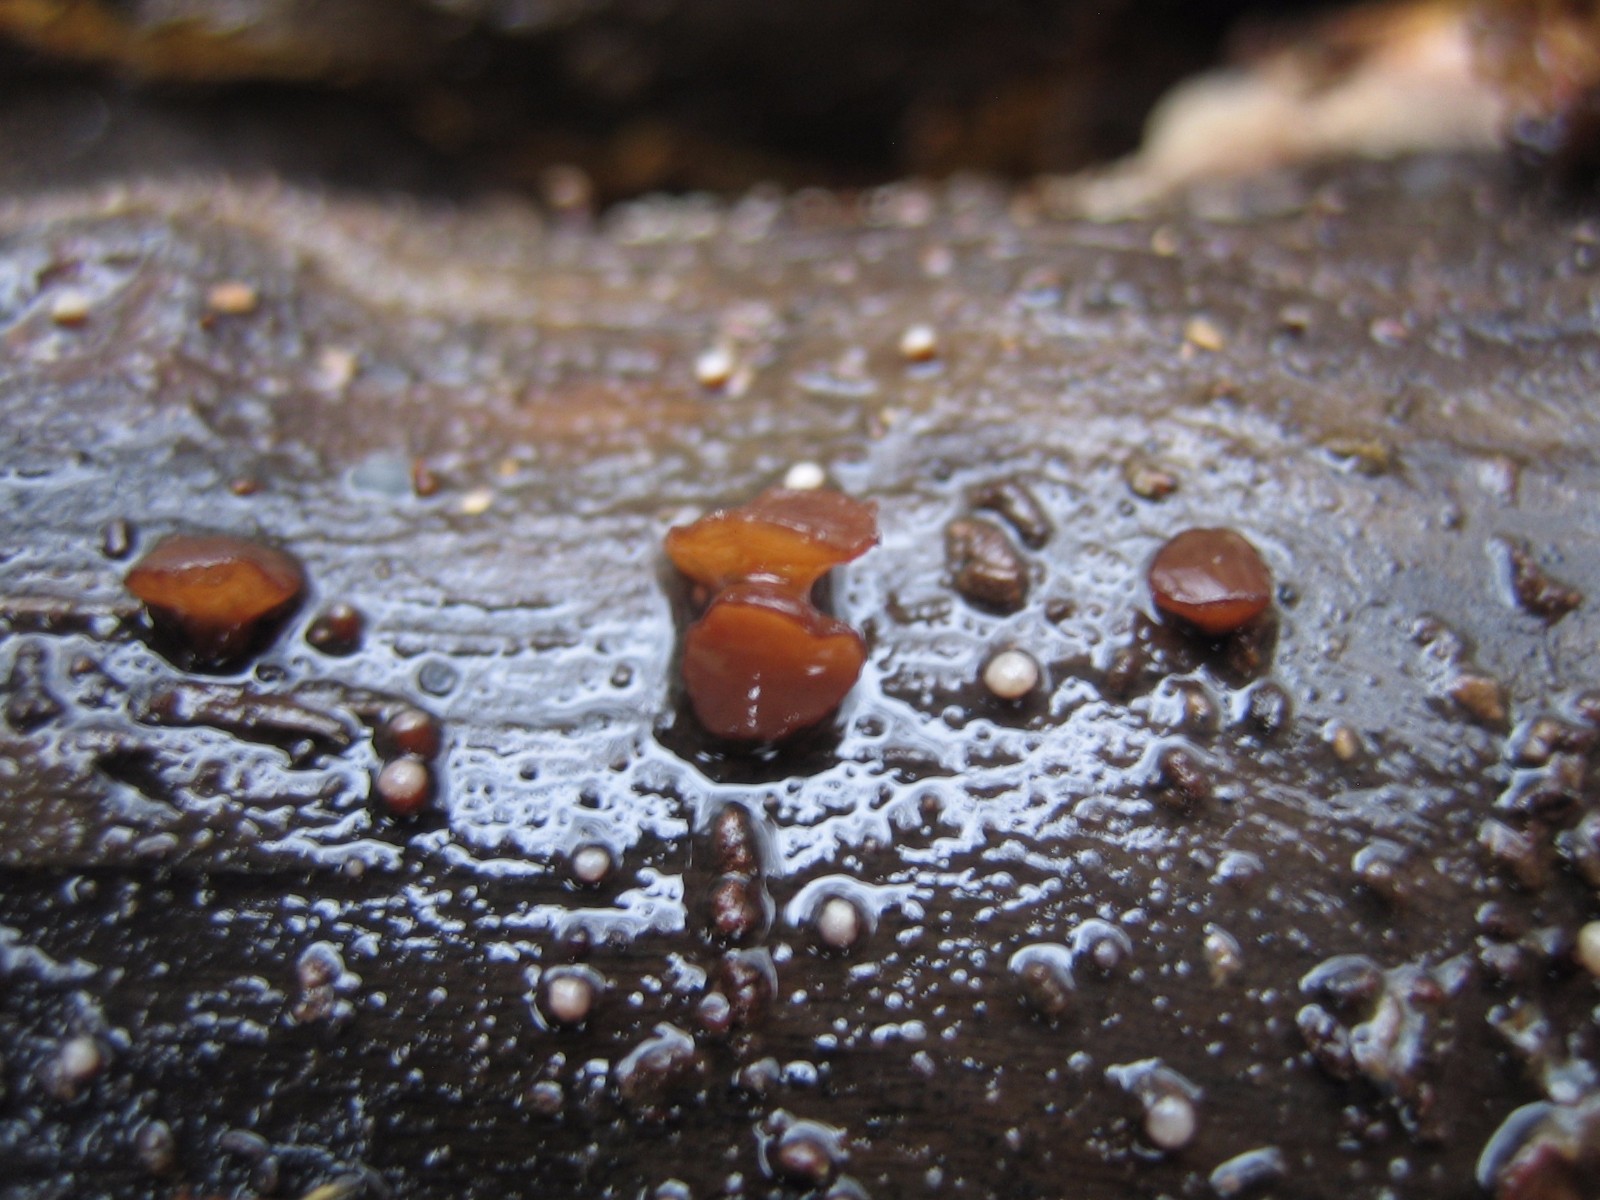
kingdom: Fungi
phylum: Ascomycota
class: Leotiomycetes
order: Helotiales
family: Rutstroemiaceae
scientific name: Rutstroemiaceae
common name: brunskivefamilien
